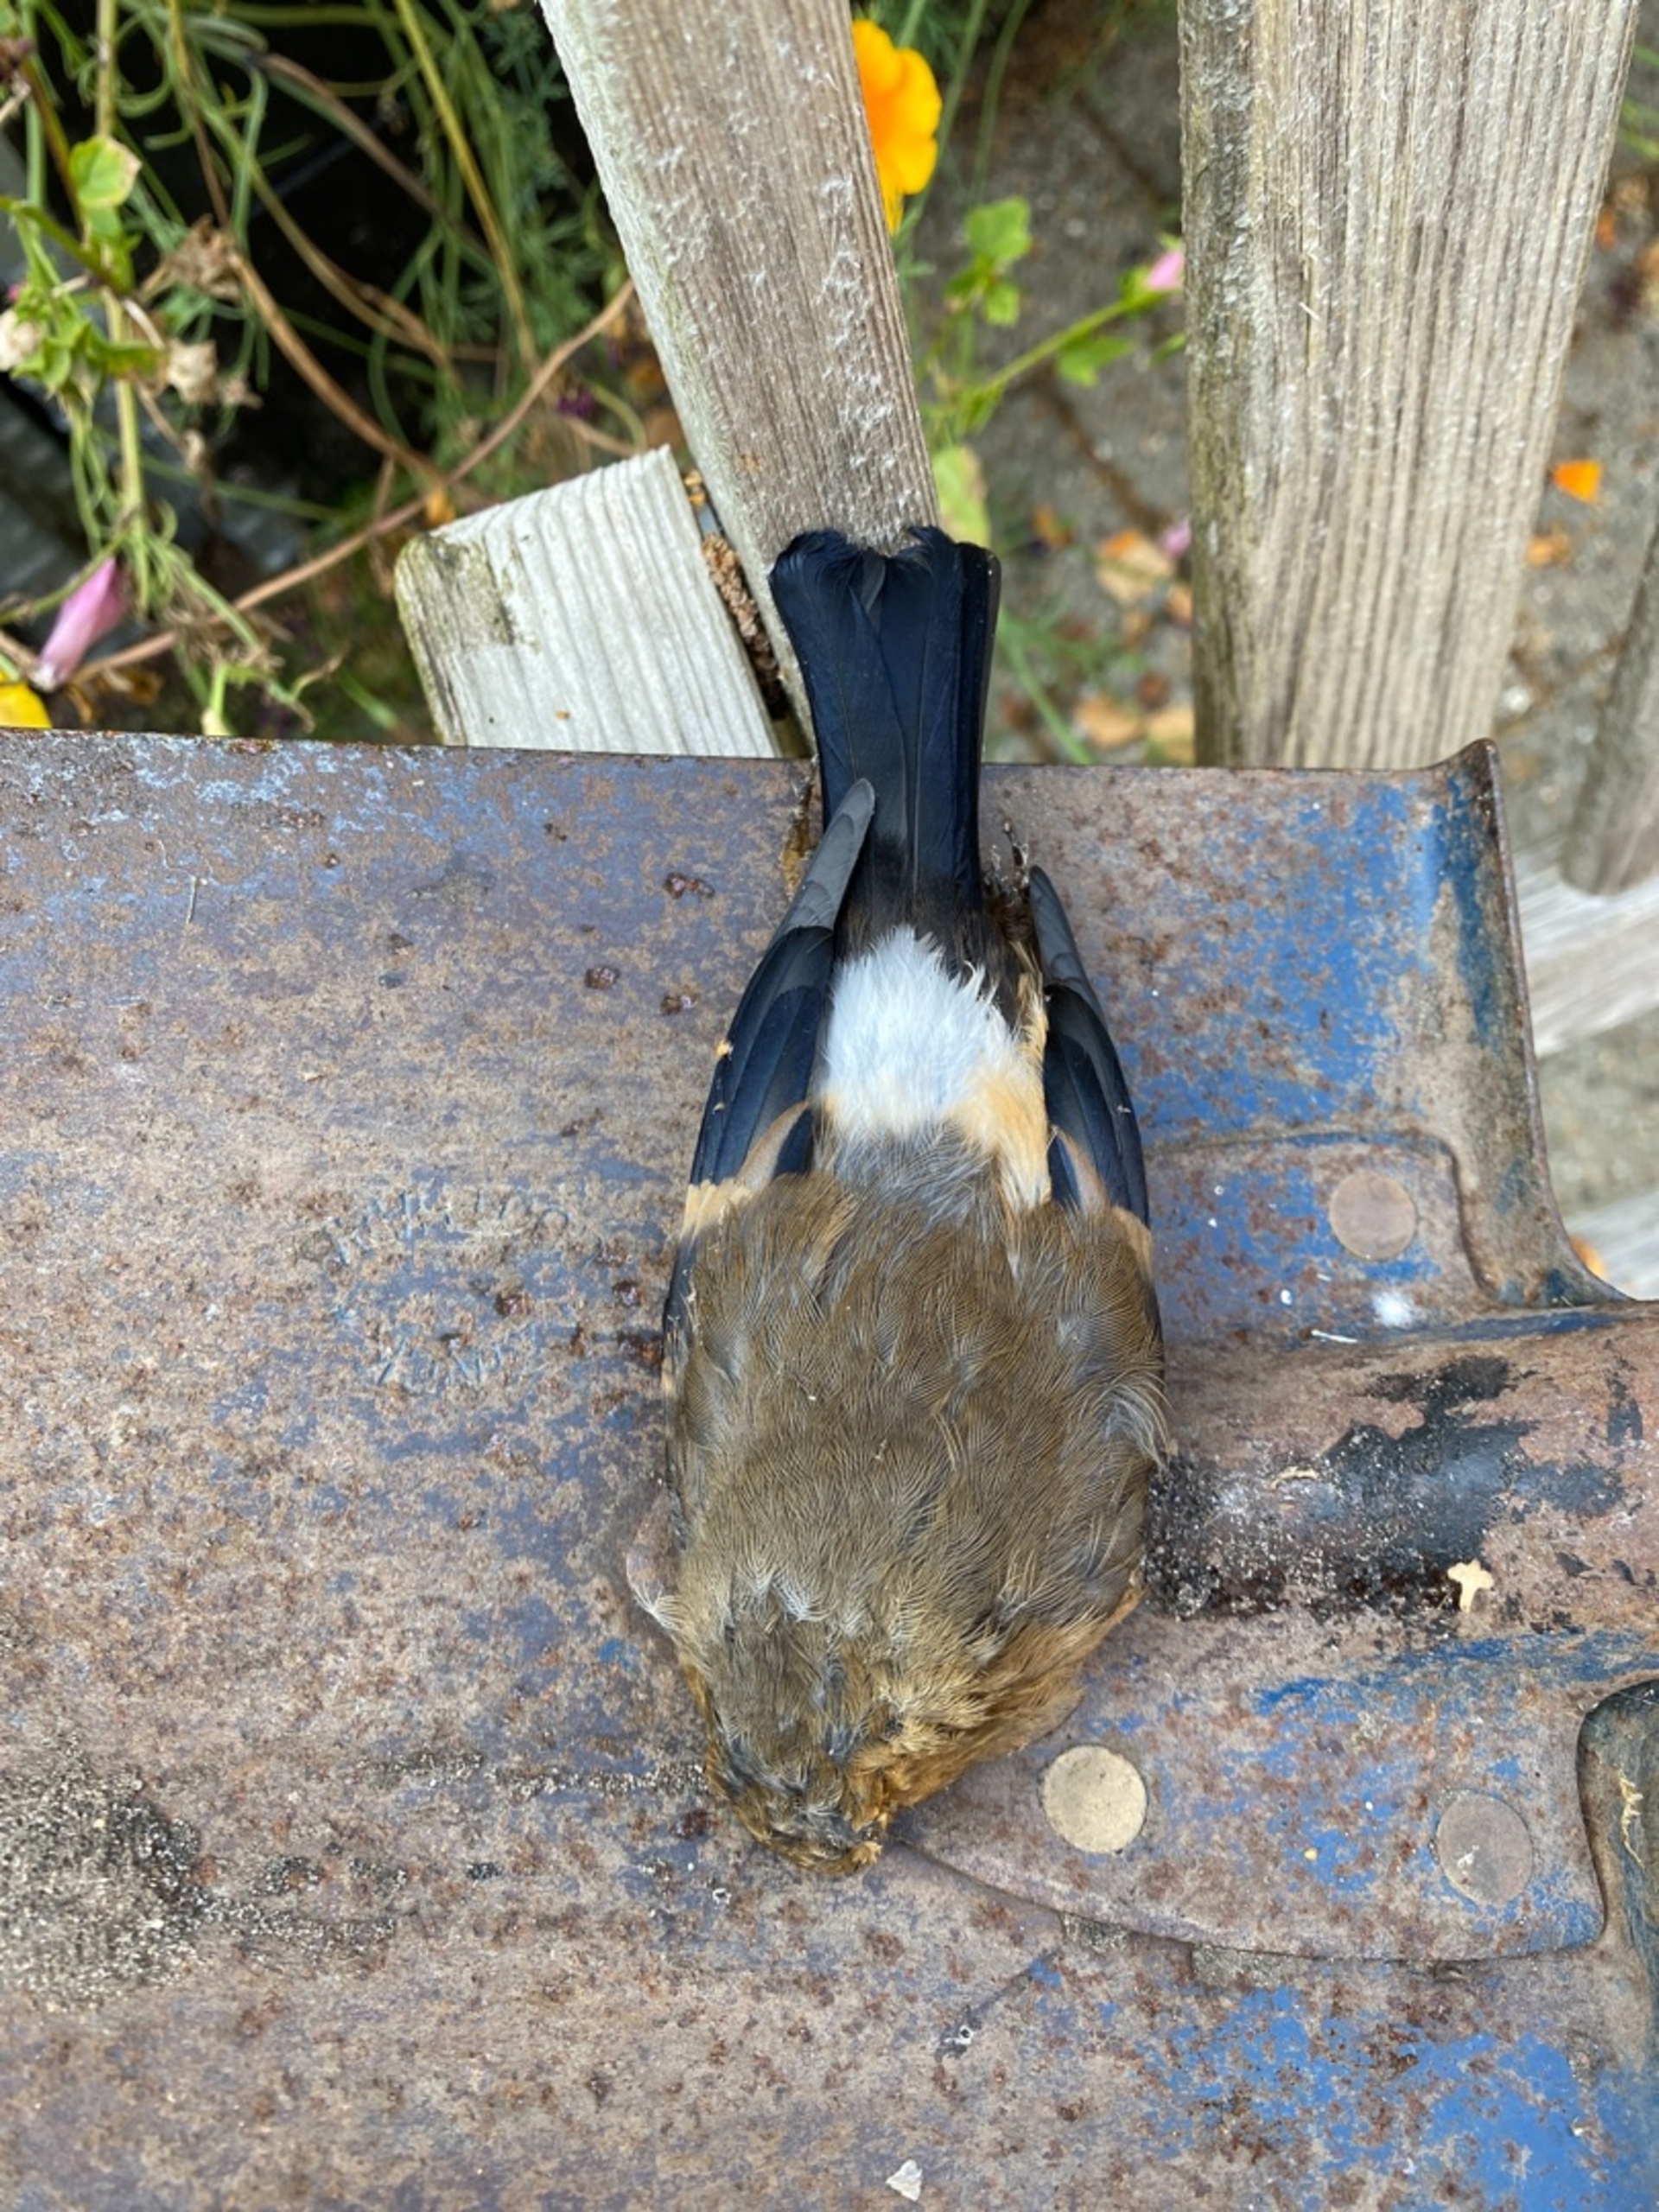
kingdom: Animalia
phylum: Chordata
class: Aves
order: Passeriformes
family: Fringillidae
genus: Pyrrhula
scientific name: Pyrrhula pyrrhula
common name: Dompap
